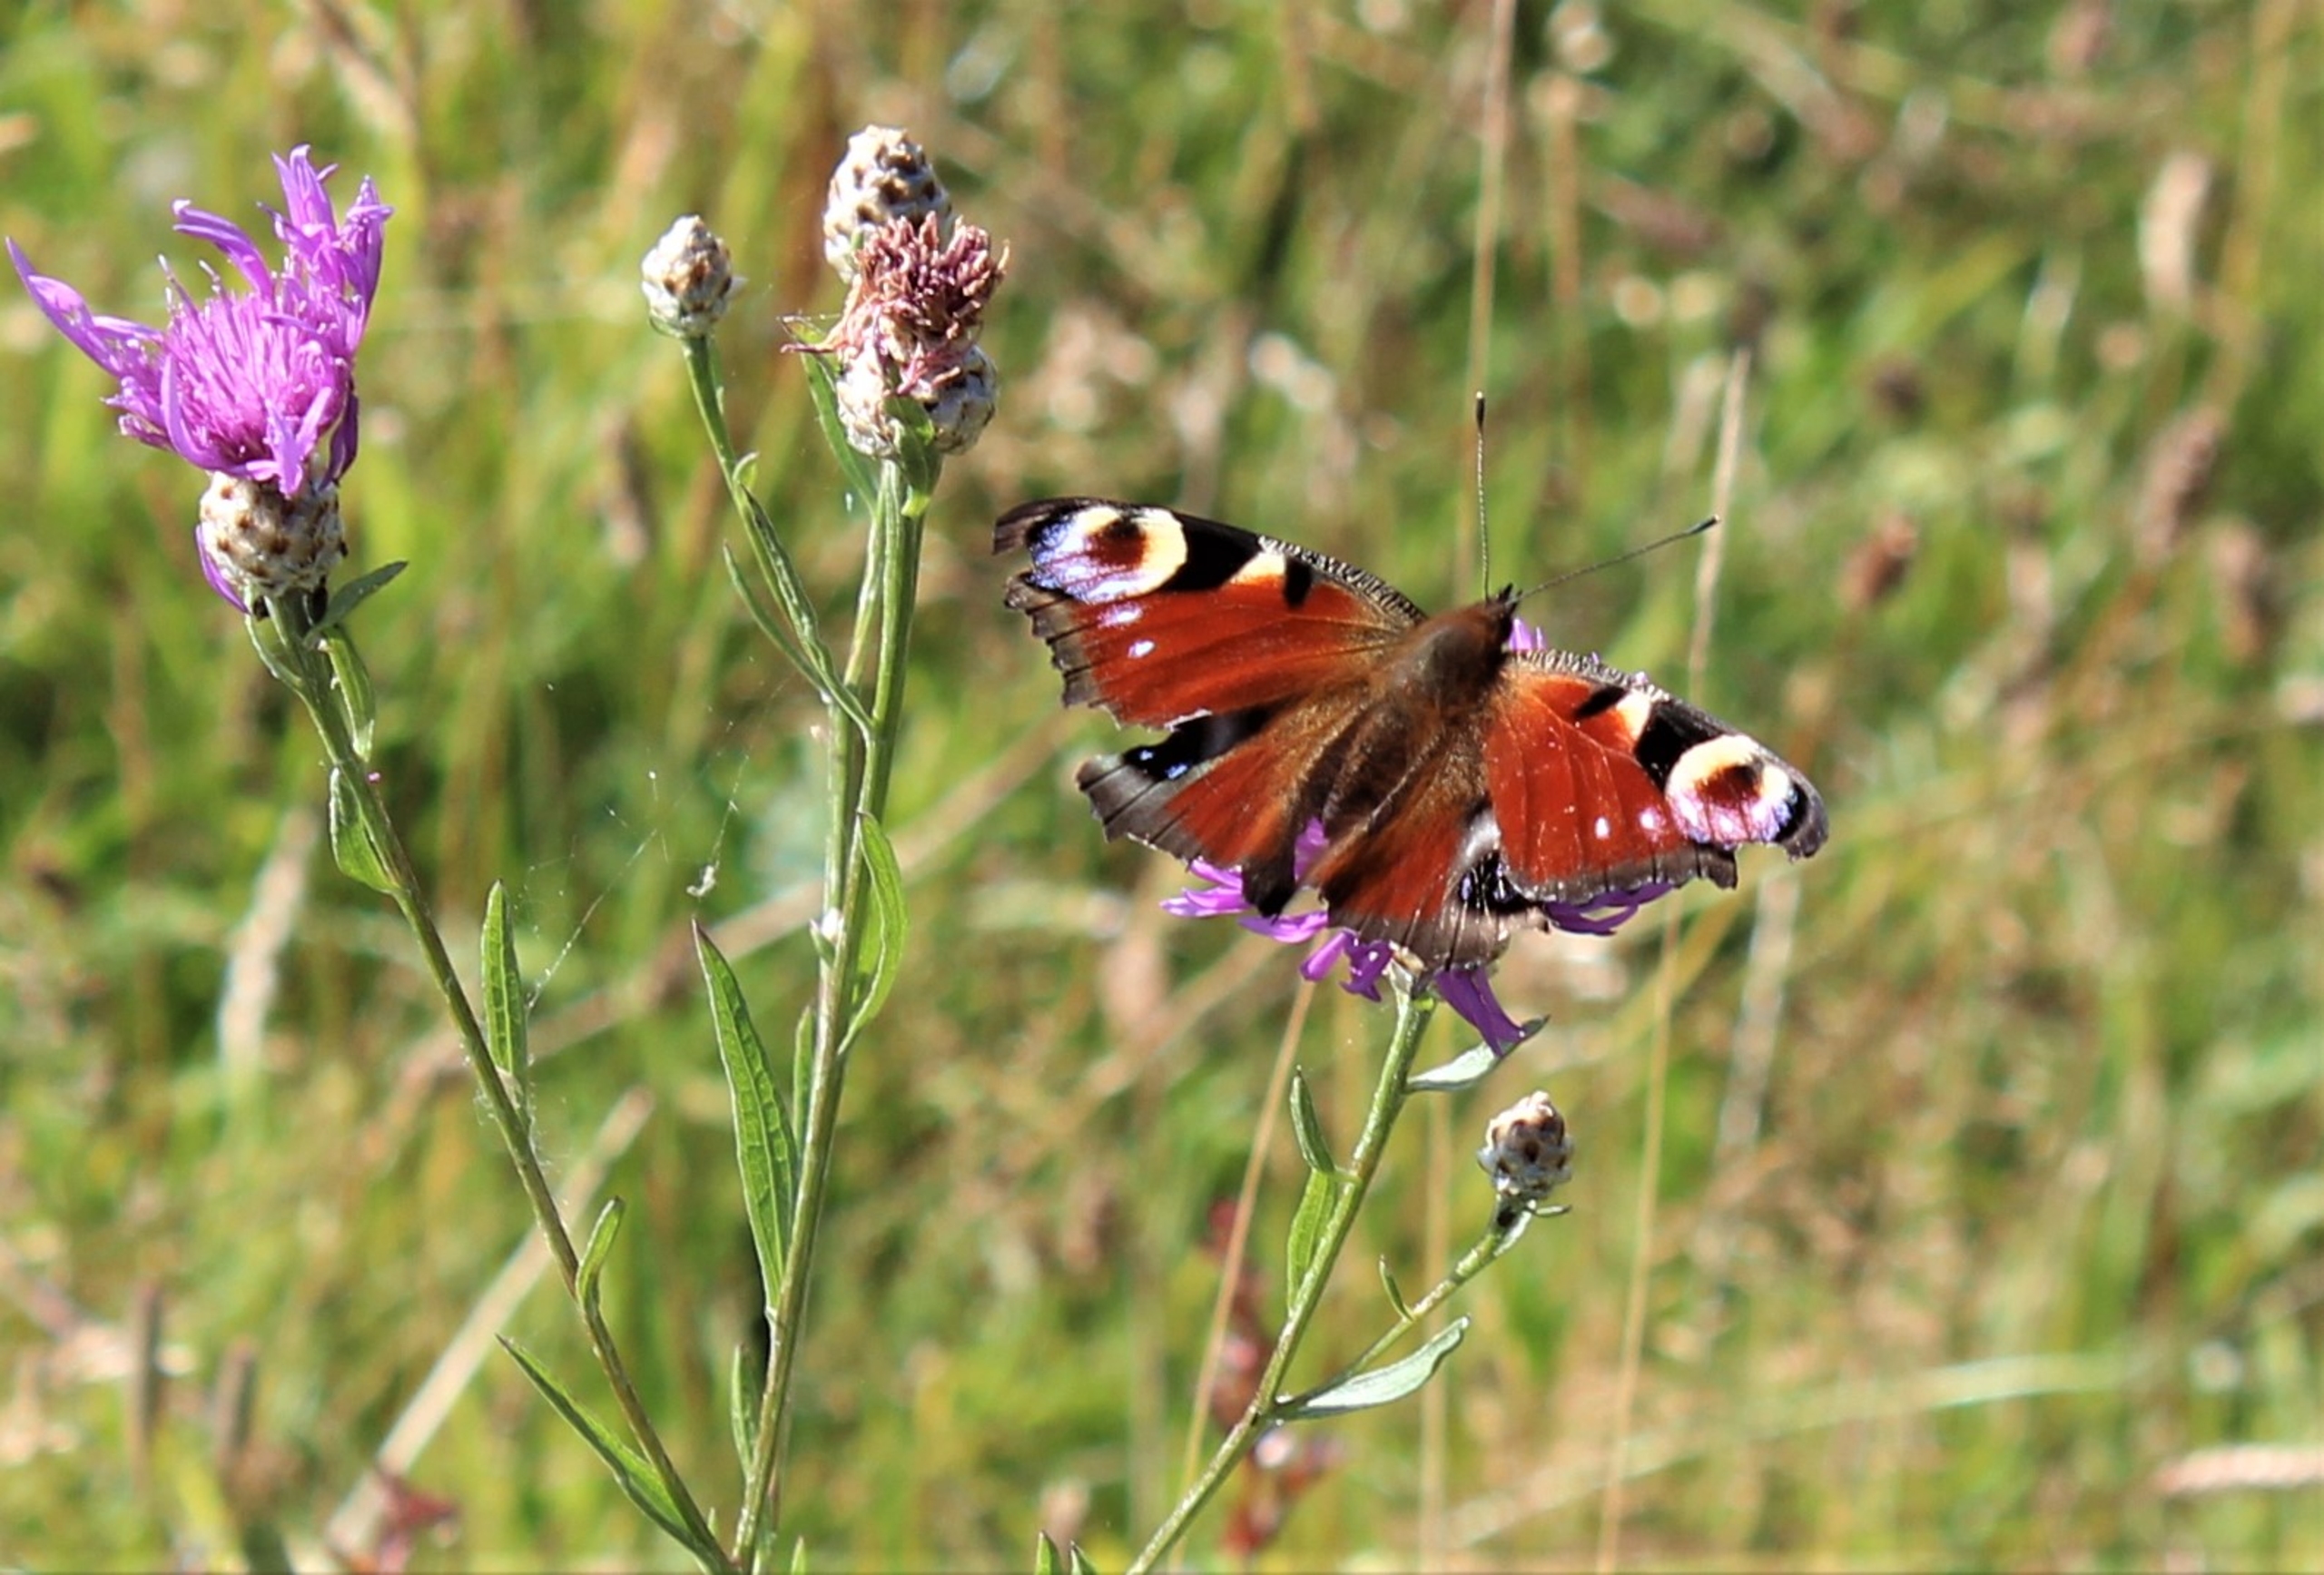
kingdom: Animalia
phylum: Arthropoda
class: Insecta
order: Lepidoptera
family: Nymphalidae
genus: Aglais
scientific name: Aglais io
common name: Dagpåfugleøje
